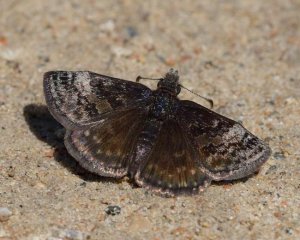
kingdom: Animalia
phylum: Arthropoda
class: Insecta
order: Lepidoptera
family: Hesperiidae
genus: Erynnis
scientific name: Erynnis icelus
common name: Dreamy Duskywing
